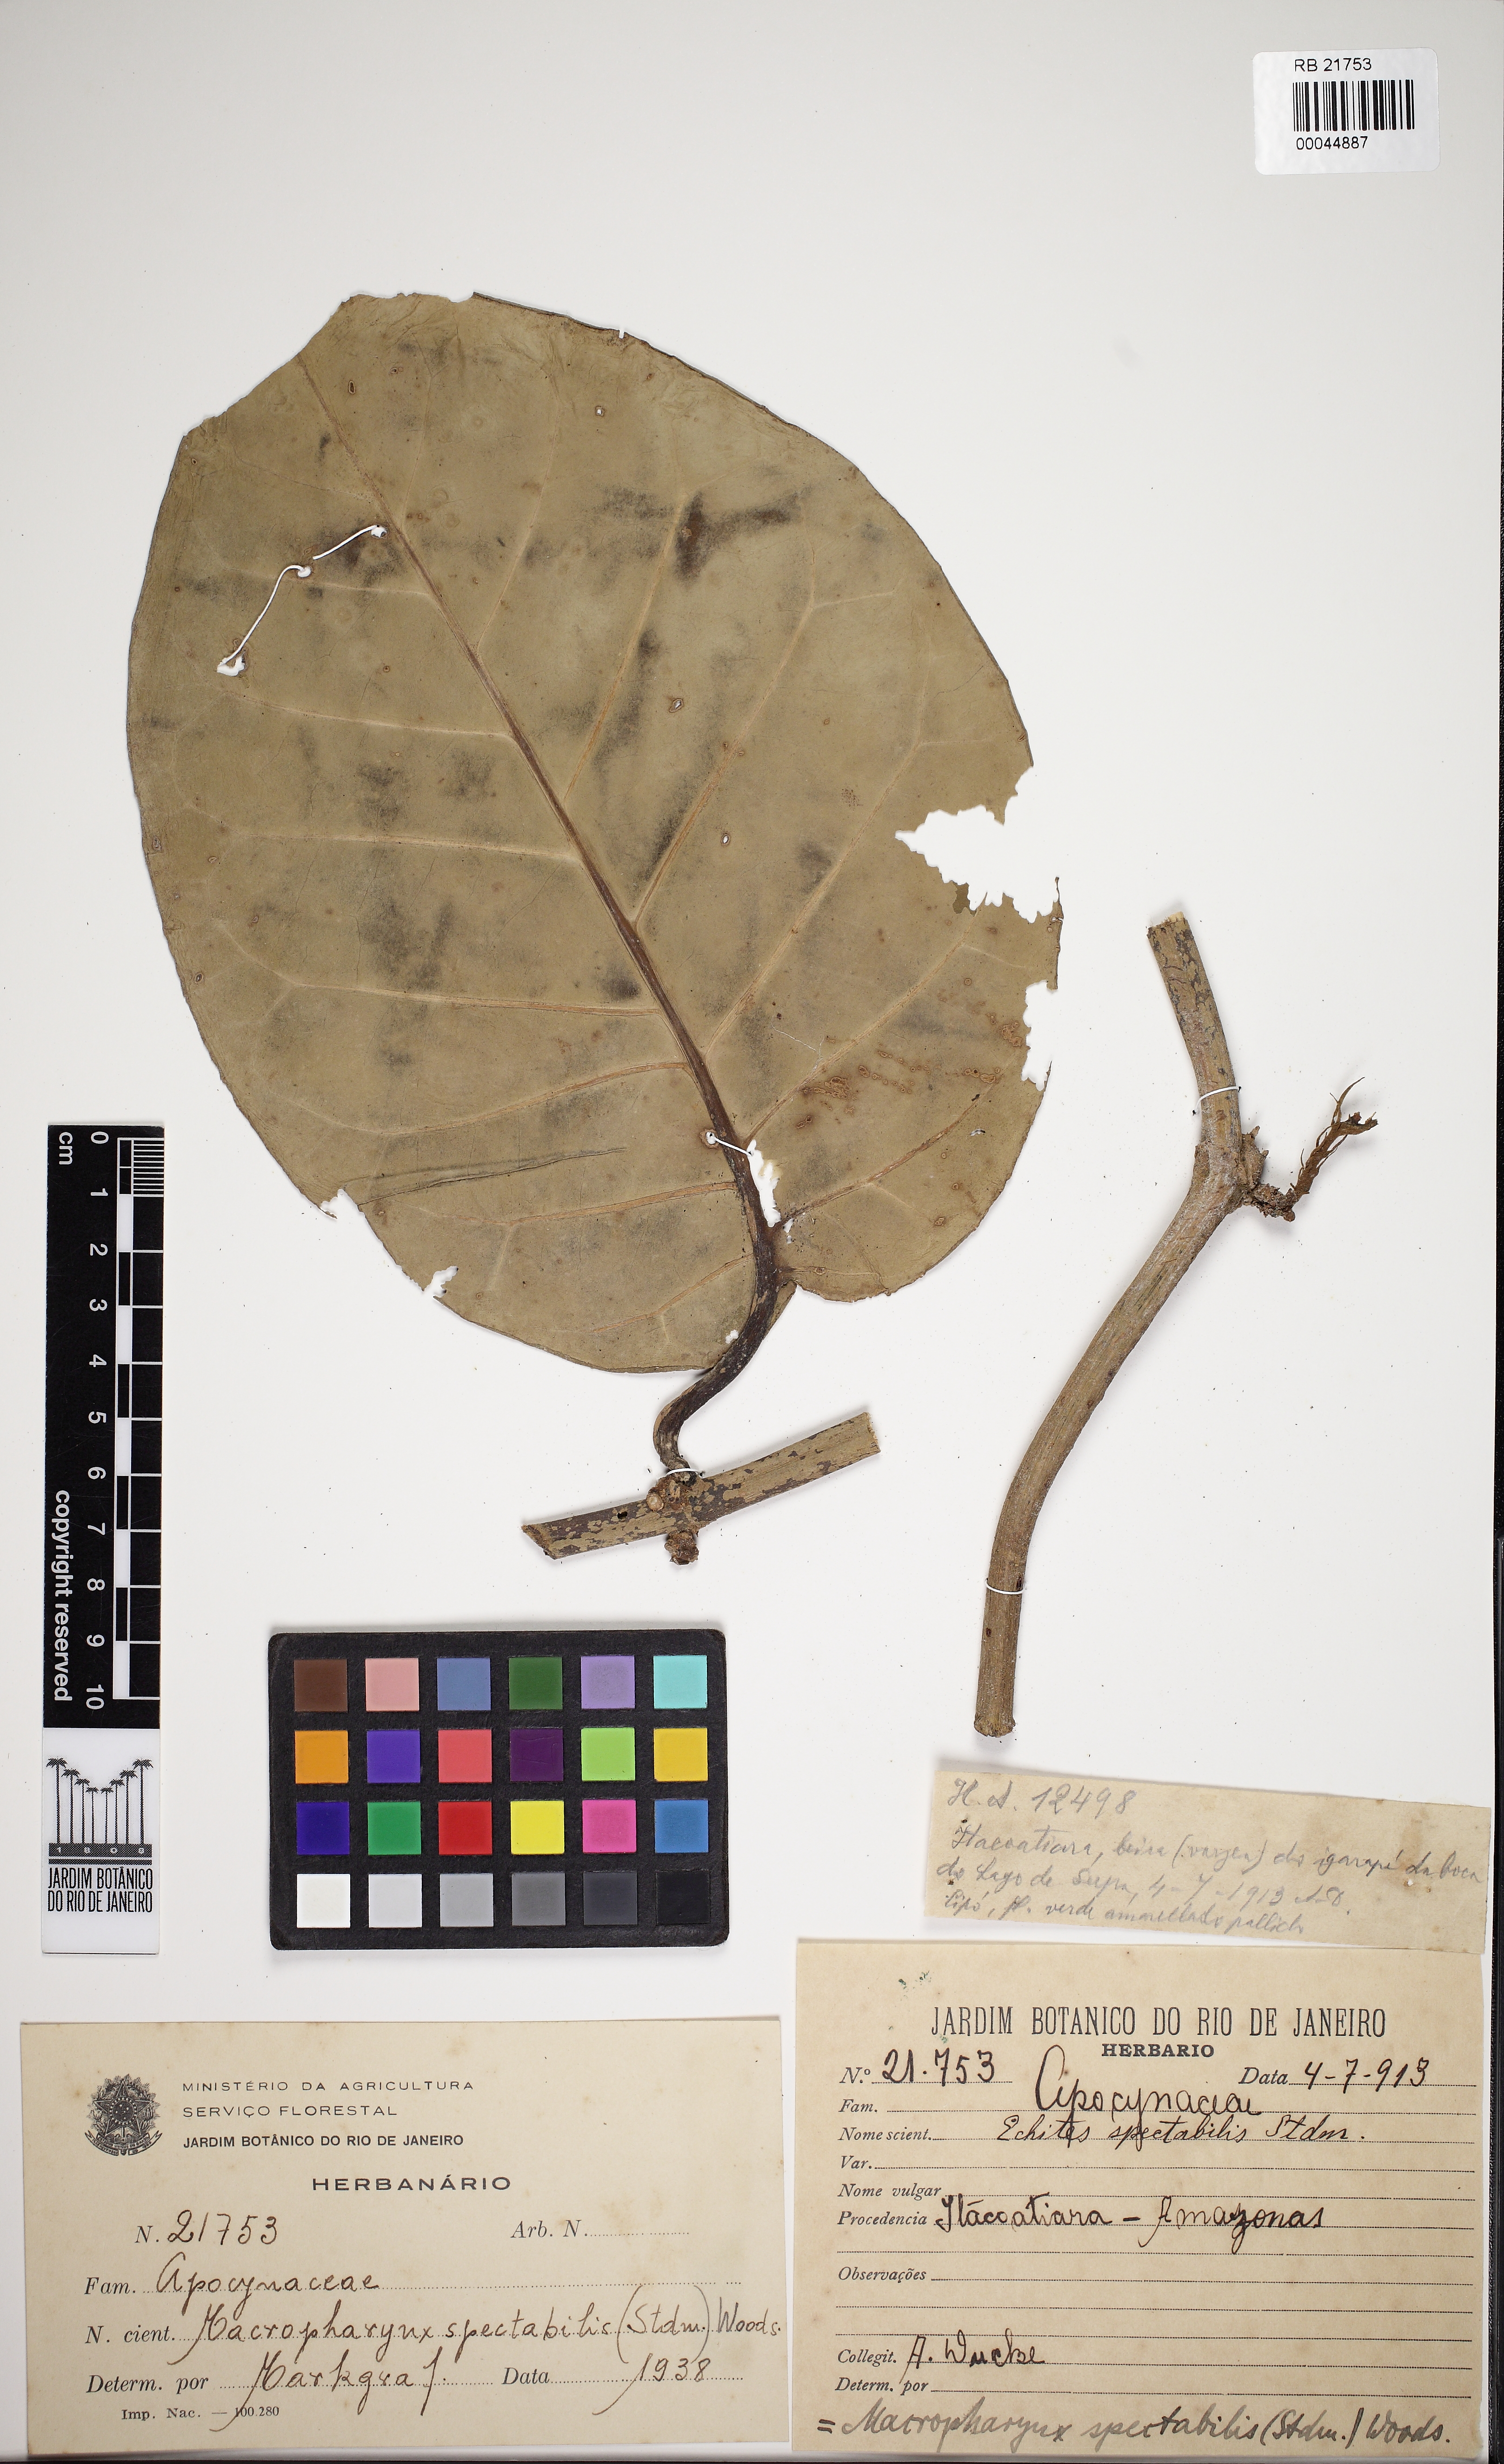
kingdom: Plantae
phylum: Tracheophyta
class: Magnoliopsida
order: Gentianales
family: Apocynaceae
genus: Macropharynx
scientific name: Macropharynx spectabilis
